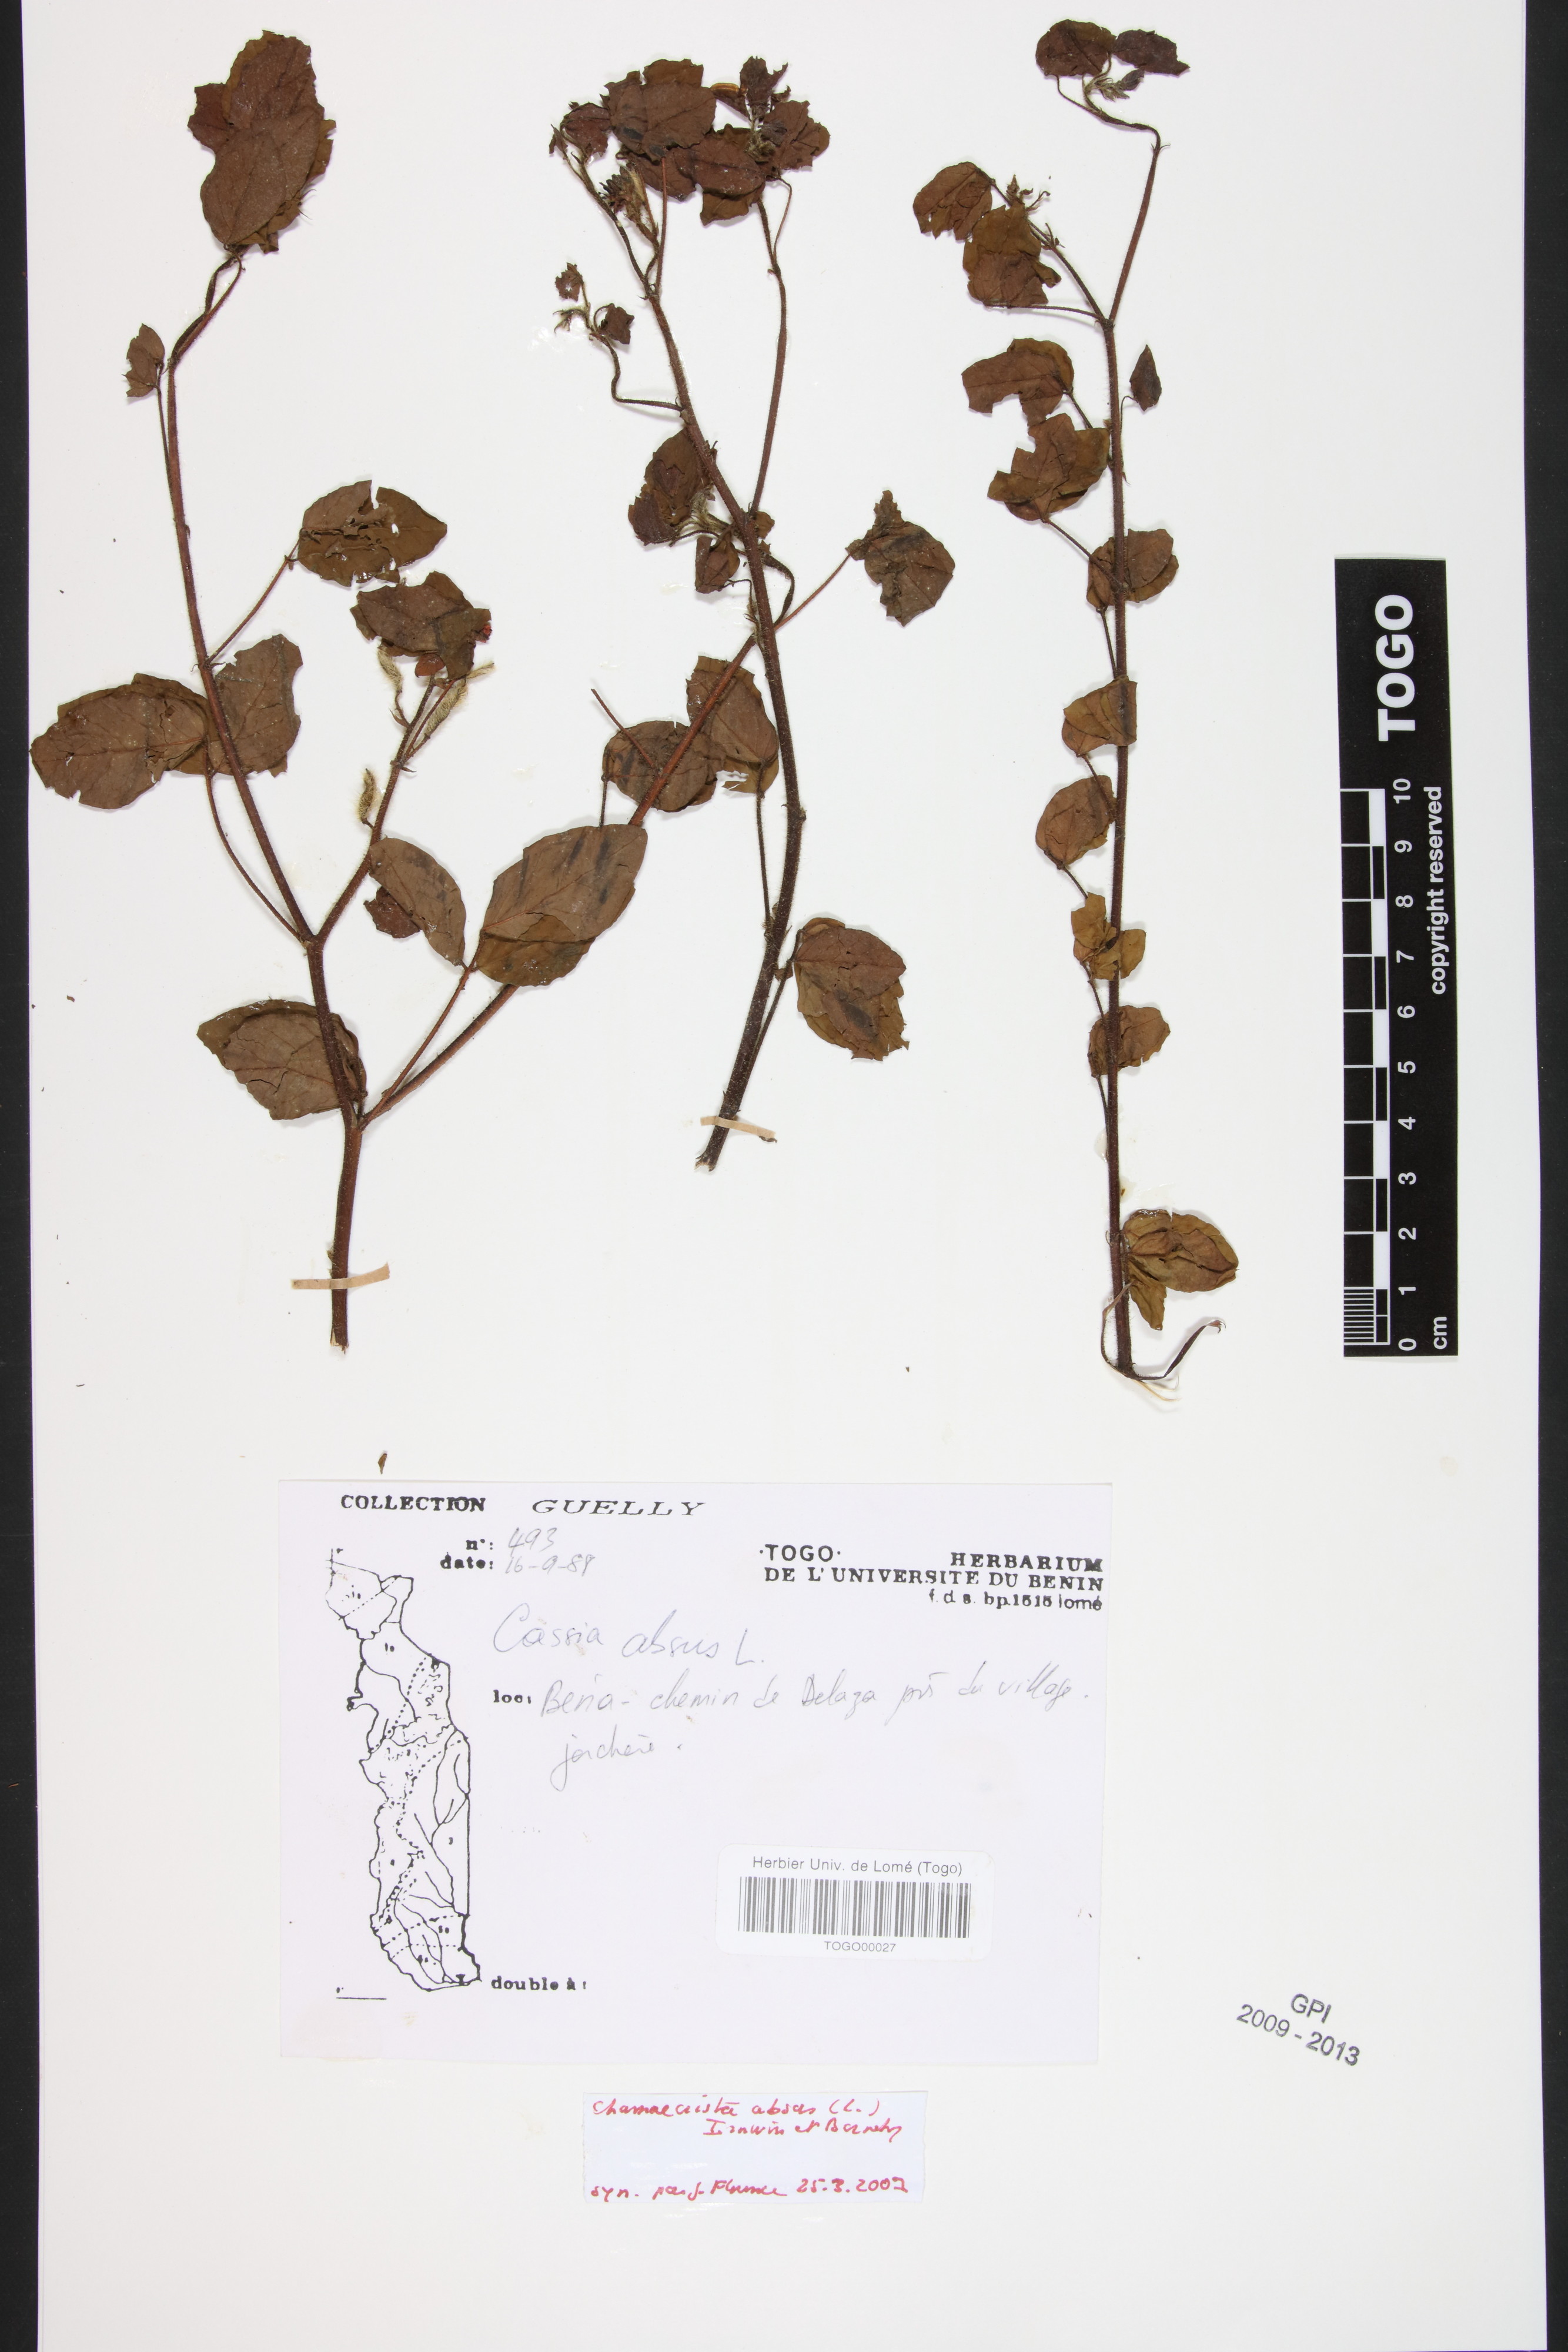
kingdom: Plantae
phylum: Tracheophyta
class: Magnoliopsida
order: Fabales
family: Fabaceae
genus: Chamaecrista
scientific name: Chamaecrista absus
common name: Tropical sensitive pea
